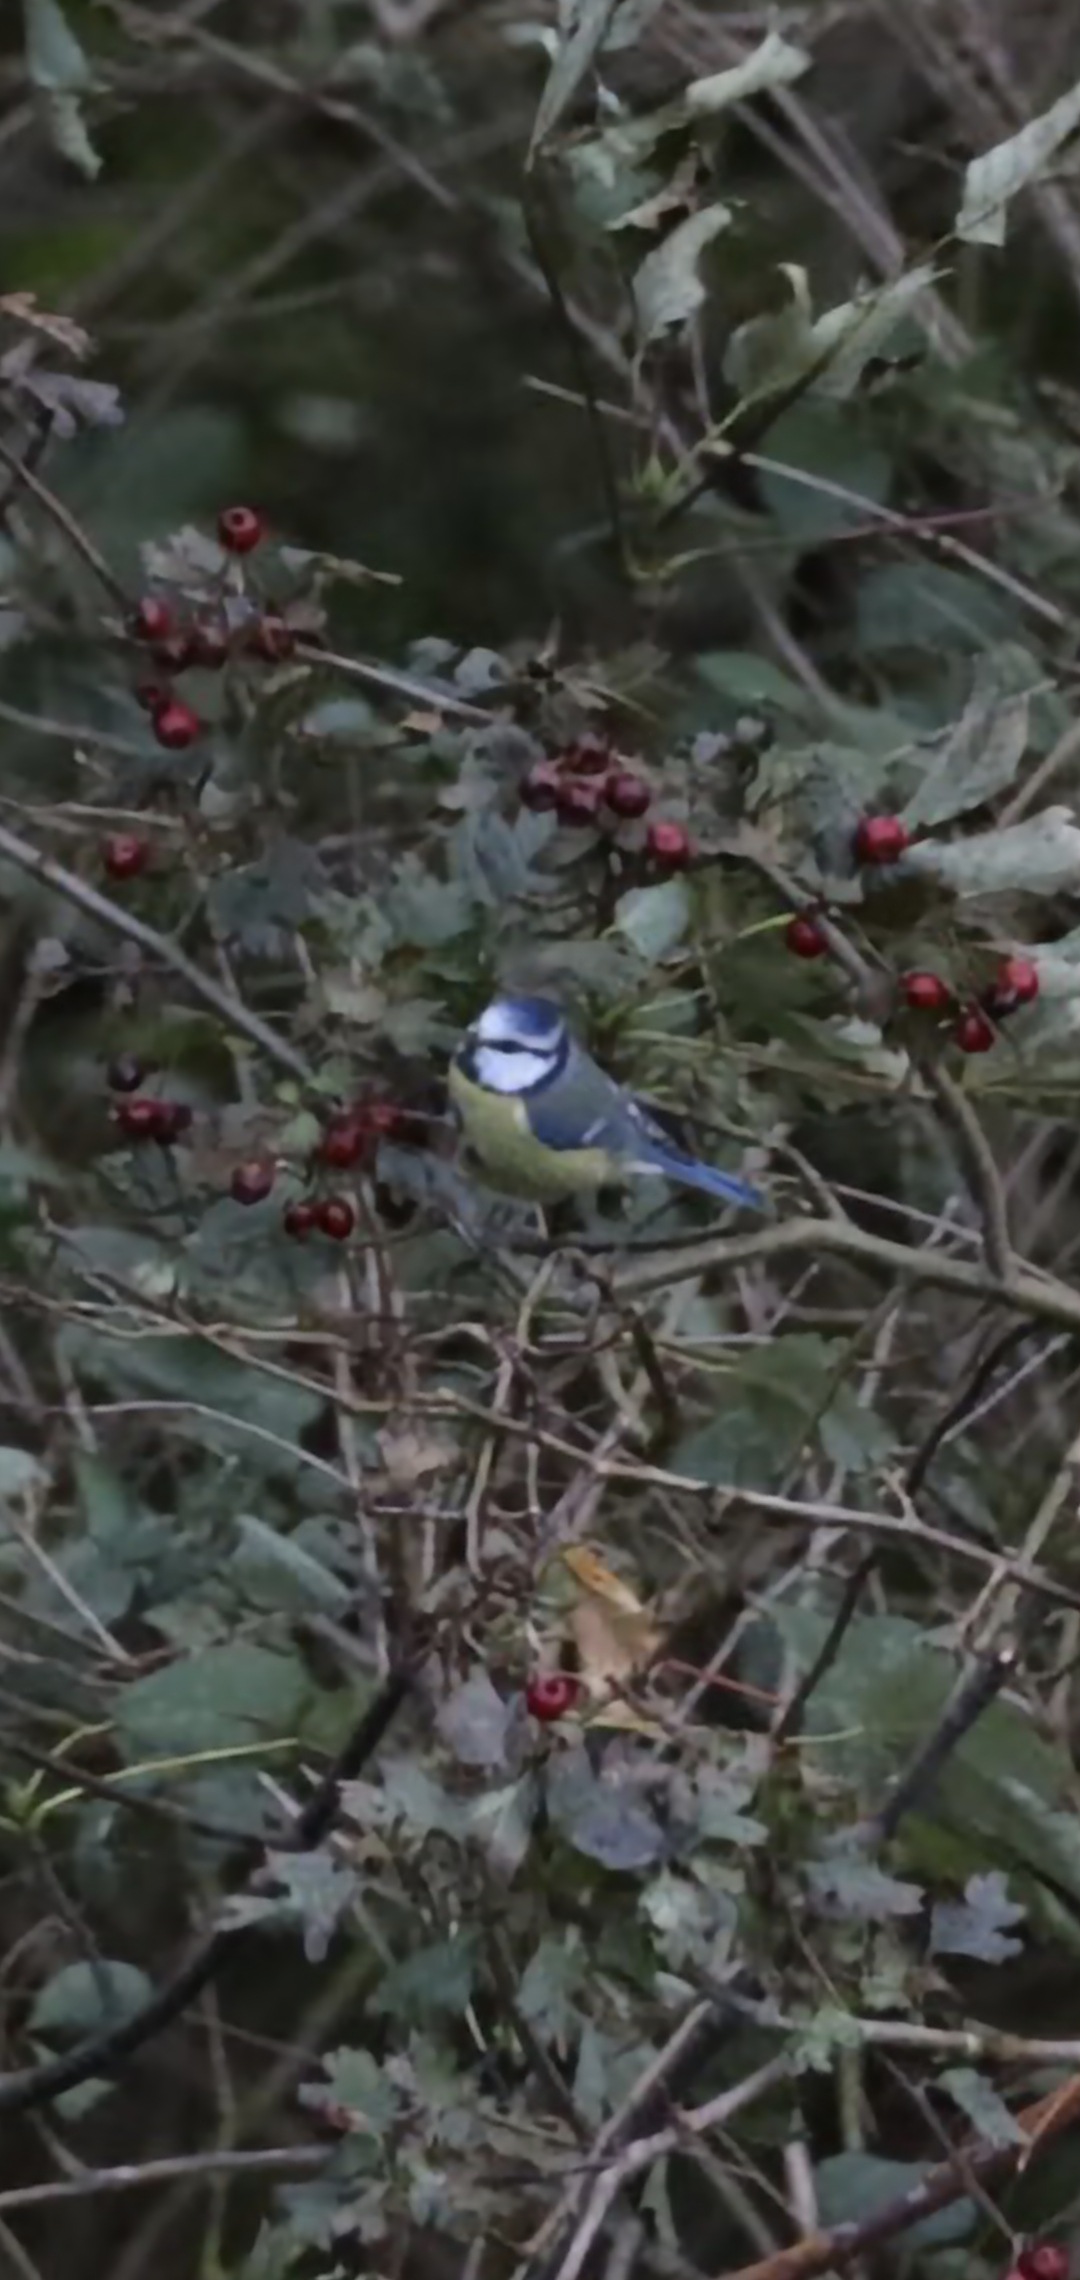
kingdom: Animalia
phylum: Chordata
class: Aves
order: Passeriformes
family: Paridae
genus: Cyanistes
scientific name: Cyanistes caeruleus
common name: Blåmejse
